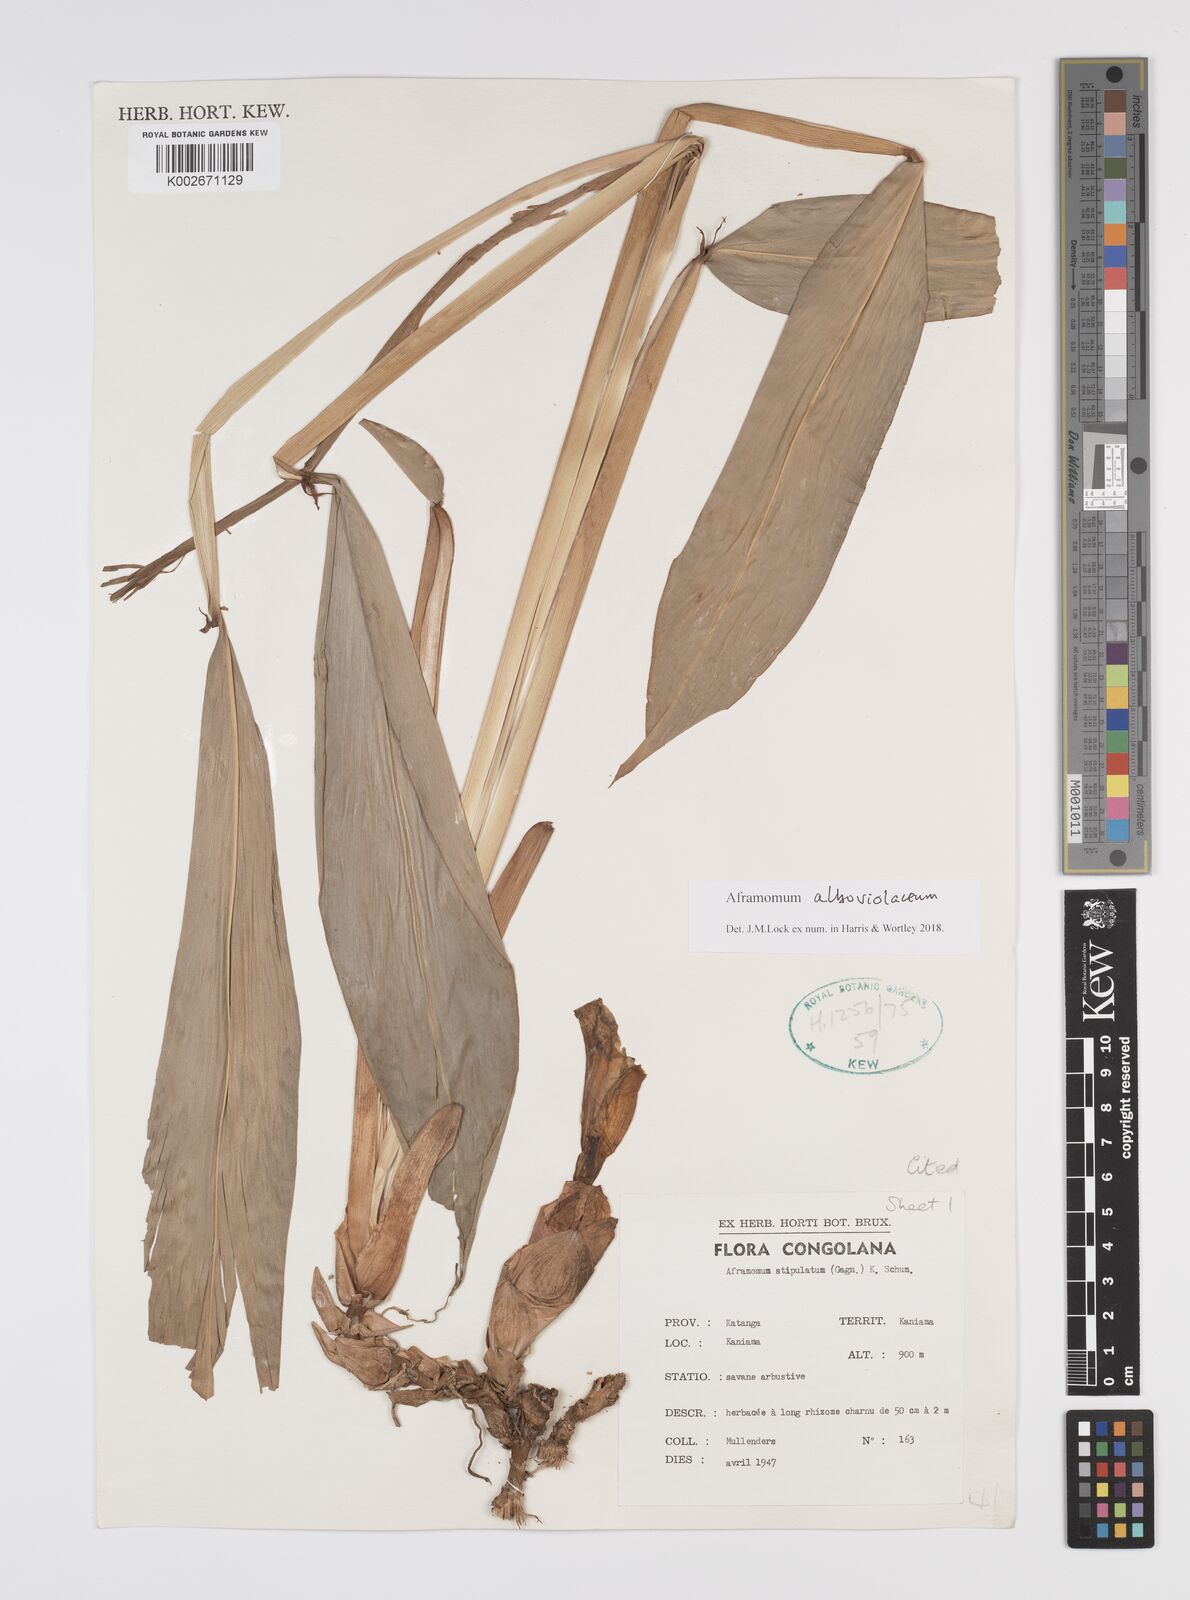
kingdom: Plantae
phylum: Tracheophyta
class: Liliopsida
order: Zingiberales
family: Zingiberaceae
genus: Aframomum
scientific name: Aframomum alboviolaceum
